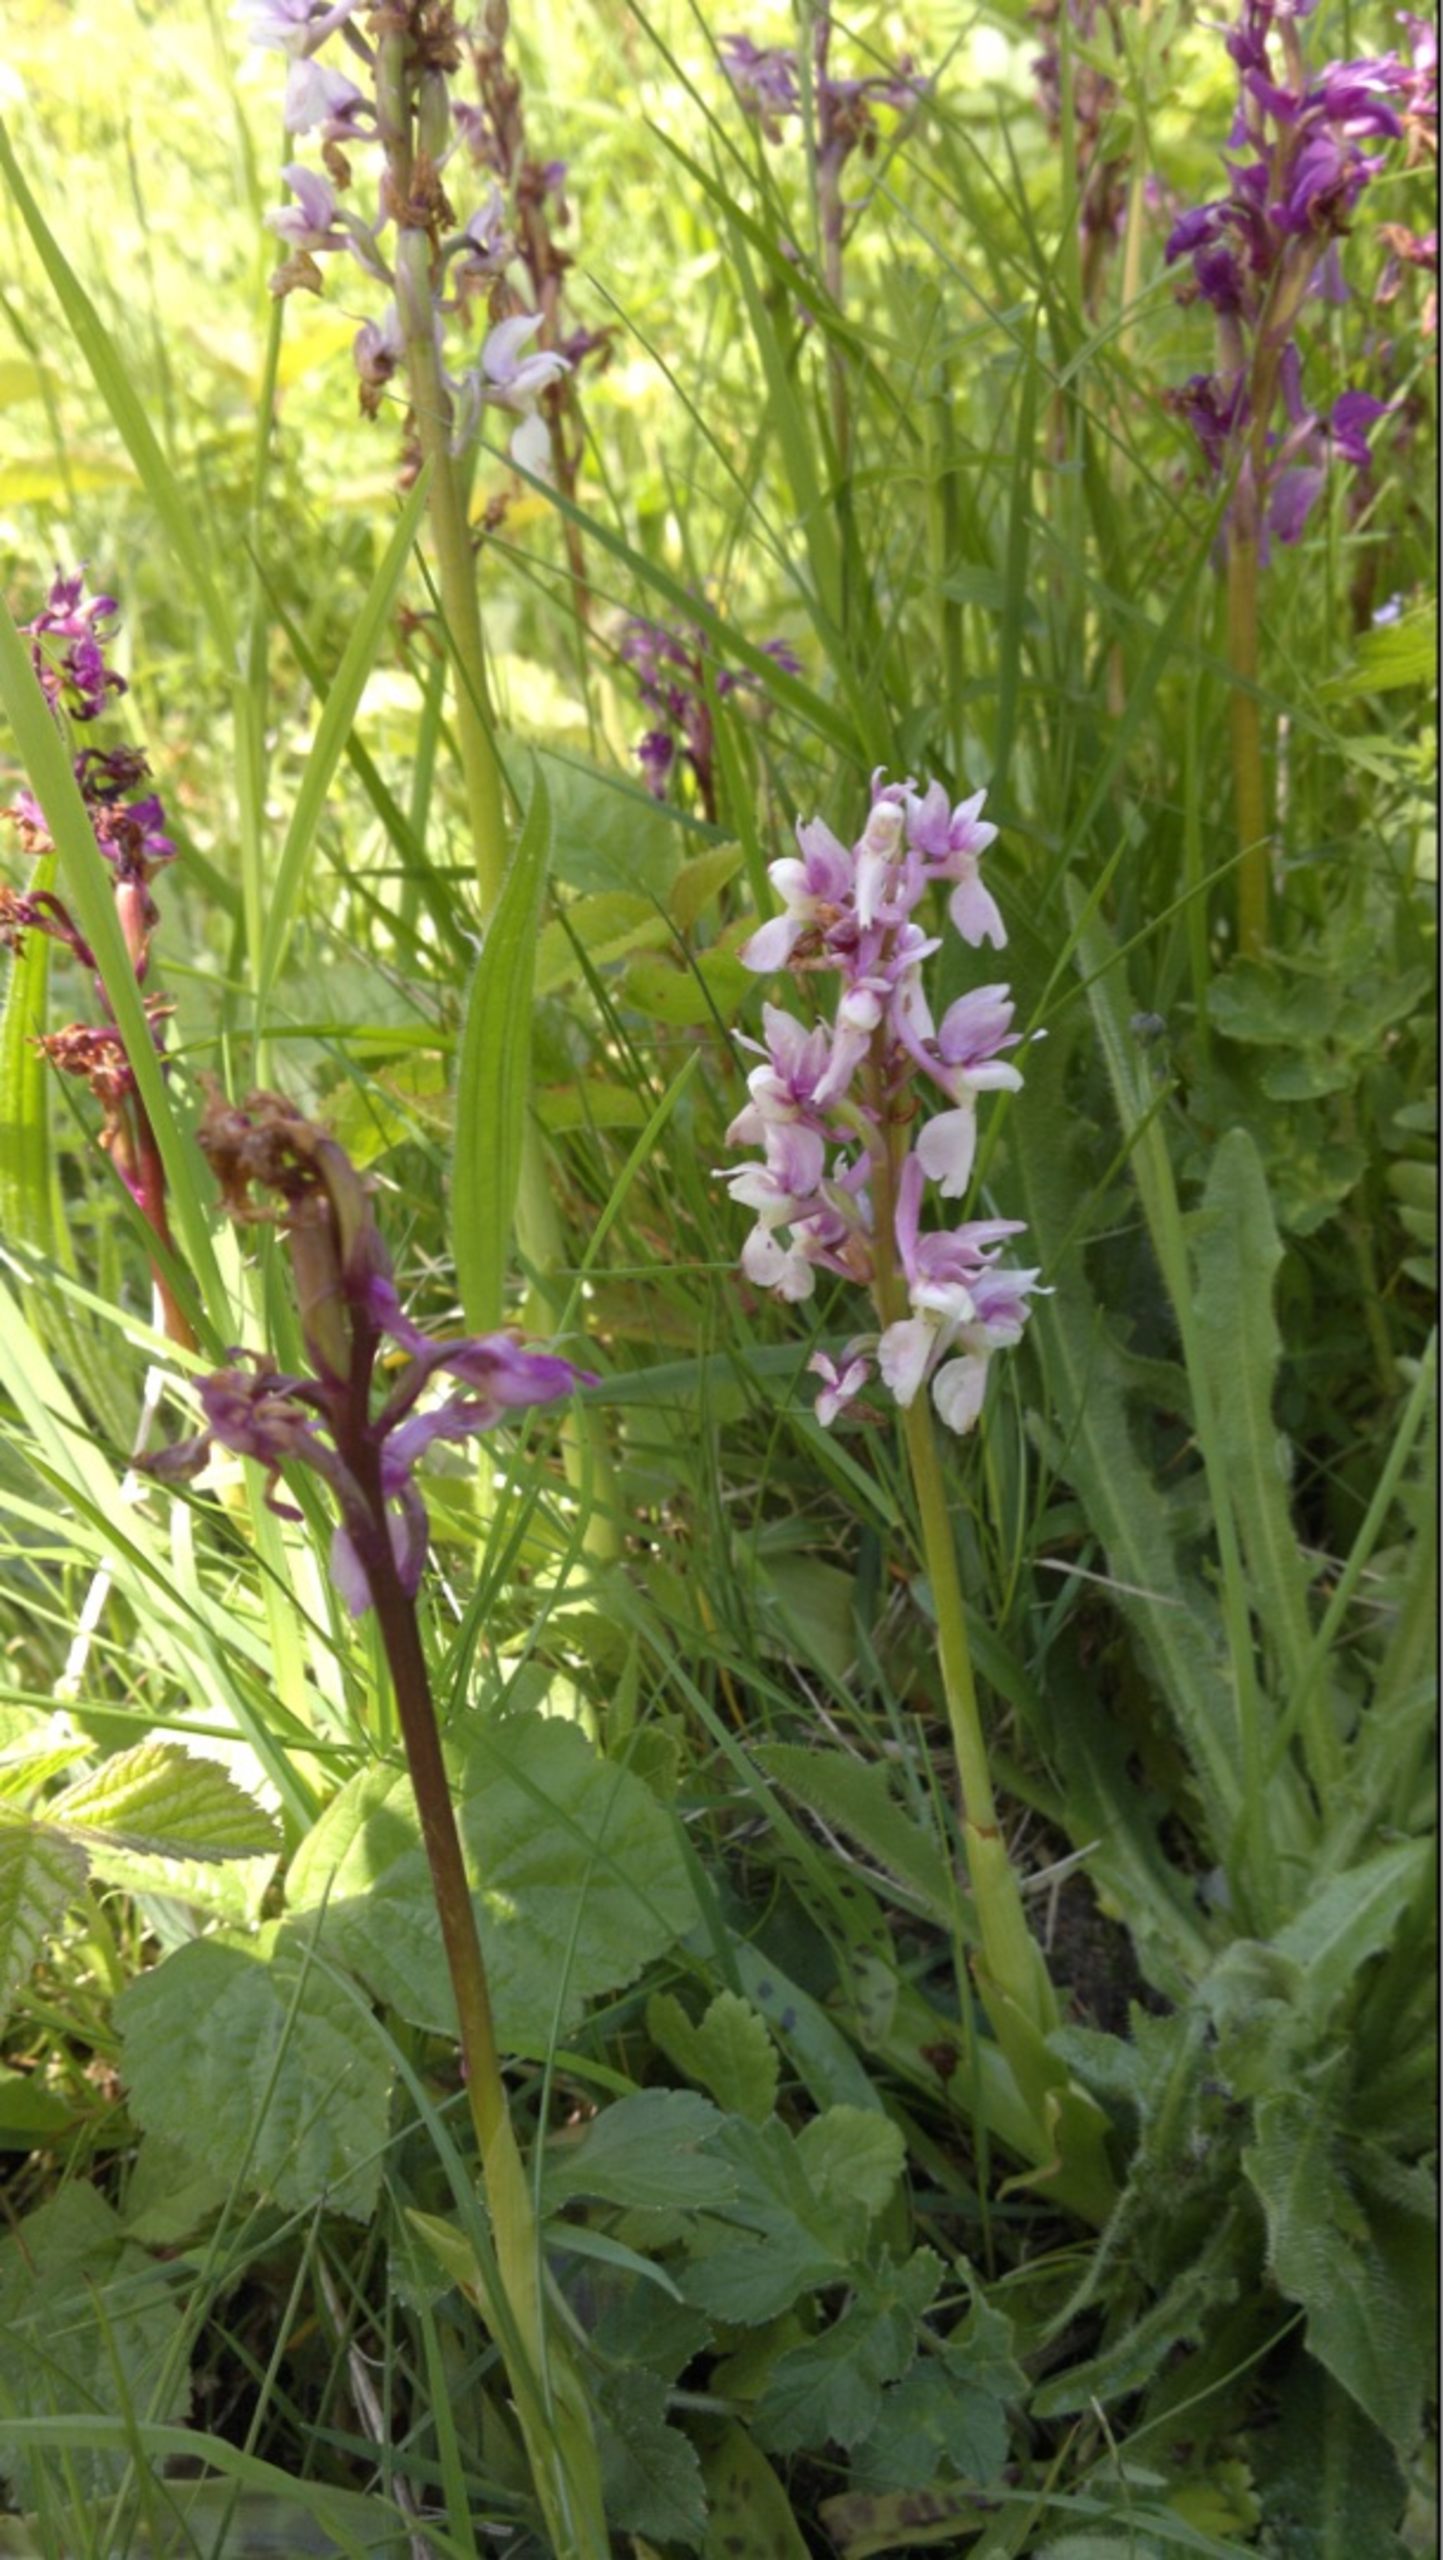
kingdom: Plantae
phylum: Tracheophyta
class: Liliopsida
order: Asparagales
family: Orchidaceae
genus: Orchis
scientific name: Orchis mascula
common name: Tyndakset gøgeurt
